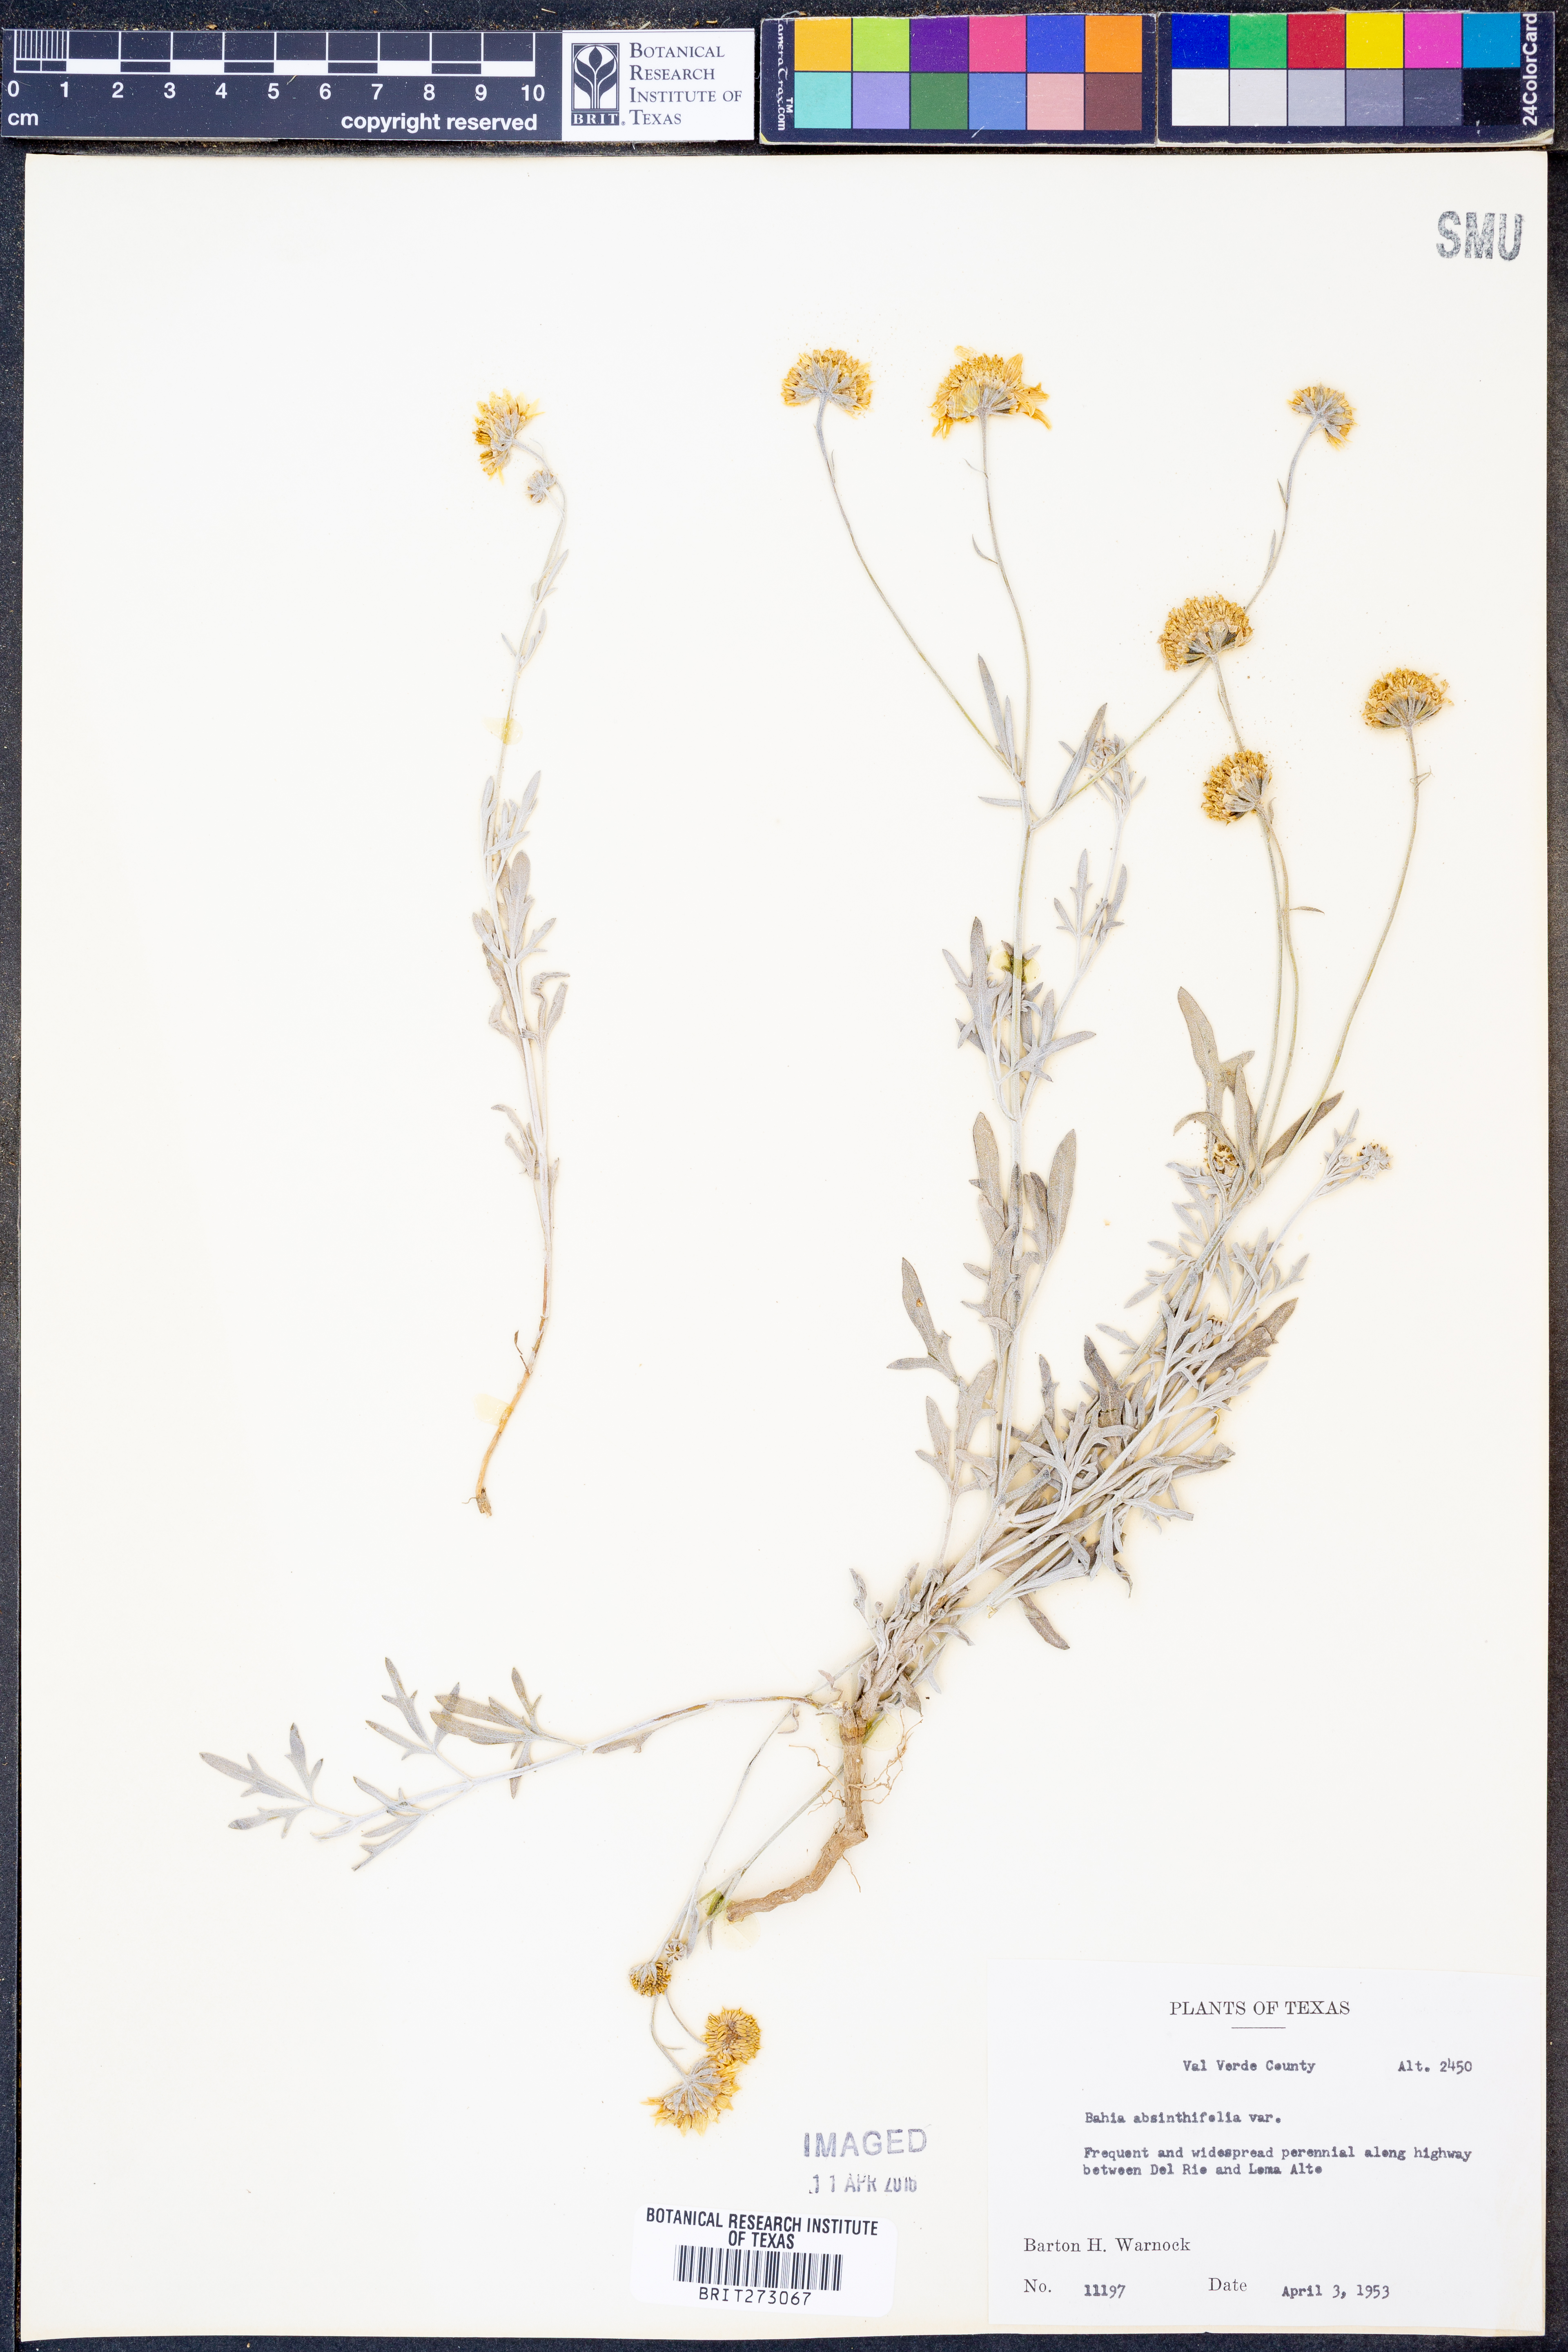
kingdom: Plantae
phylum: Tracheophyta
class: Magnoliopsida
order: Asterales
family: Asteraceae
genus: Picradeniopsis
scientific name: Picradeniopsis absinthifolia
